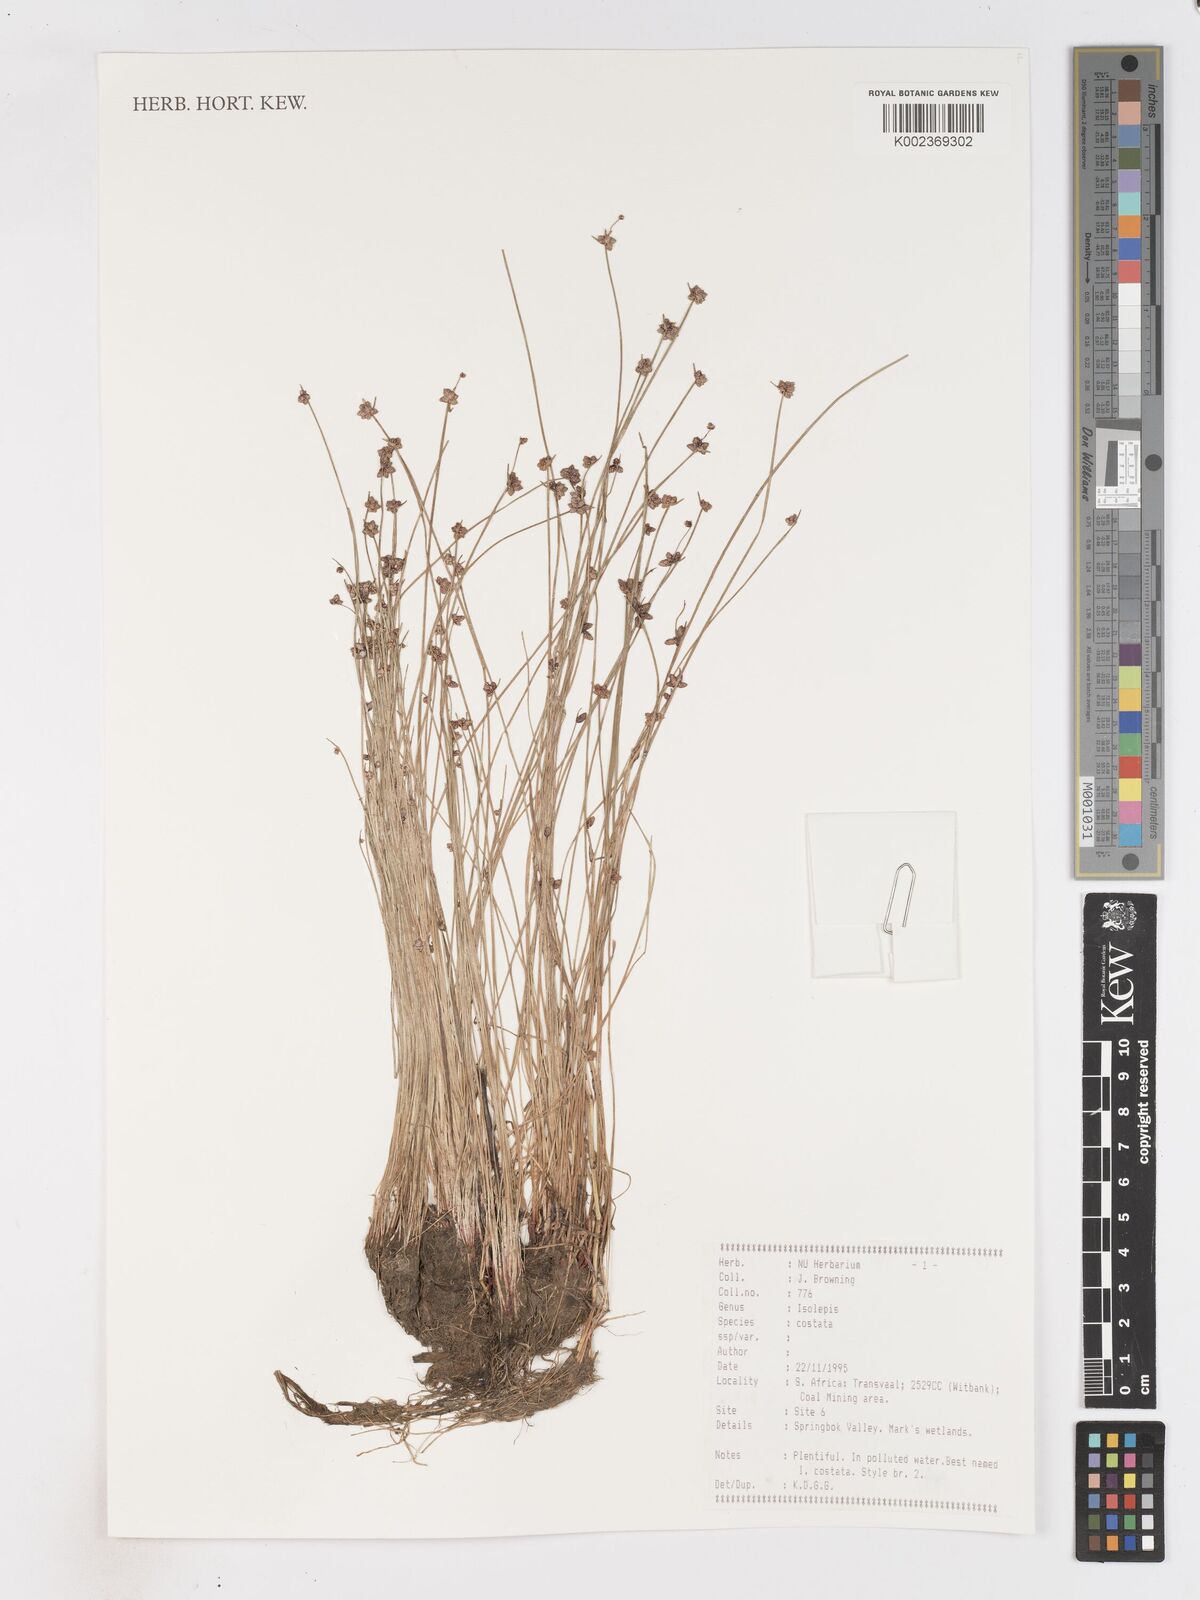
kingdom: Plantae
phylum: Tracheophyta
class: Liliopsida
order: Poales
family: Cyperaceae
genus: Isolepis
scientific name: Isolepis costata
